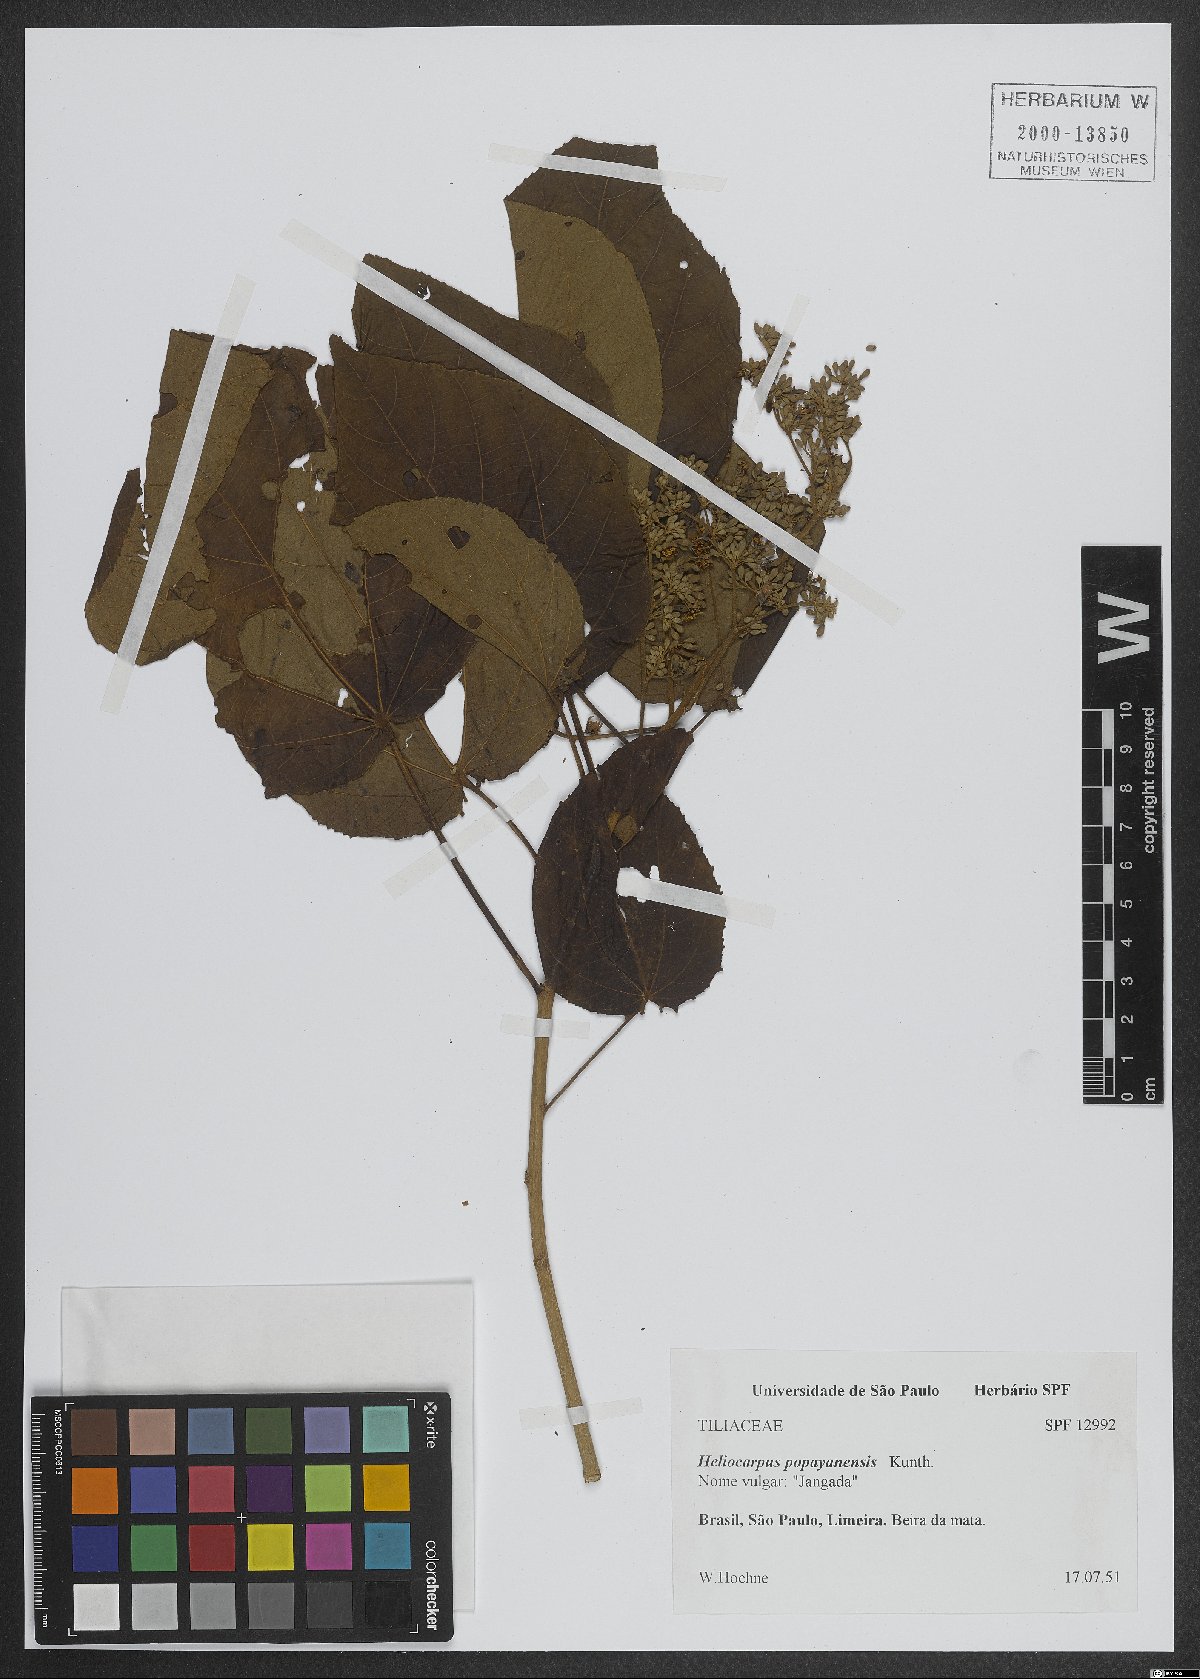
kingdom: Plantae
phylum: Tracheophyta
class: Magnoliopsida
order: Malvales
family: Malvaceae
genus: Heliocarpus
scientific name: Heliocarpus americanus
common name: White moho
